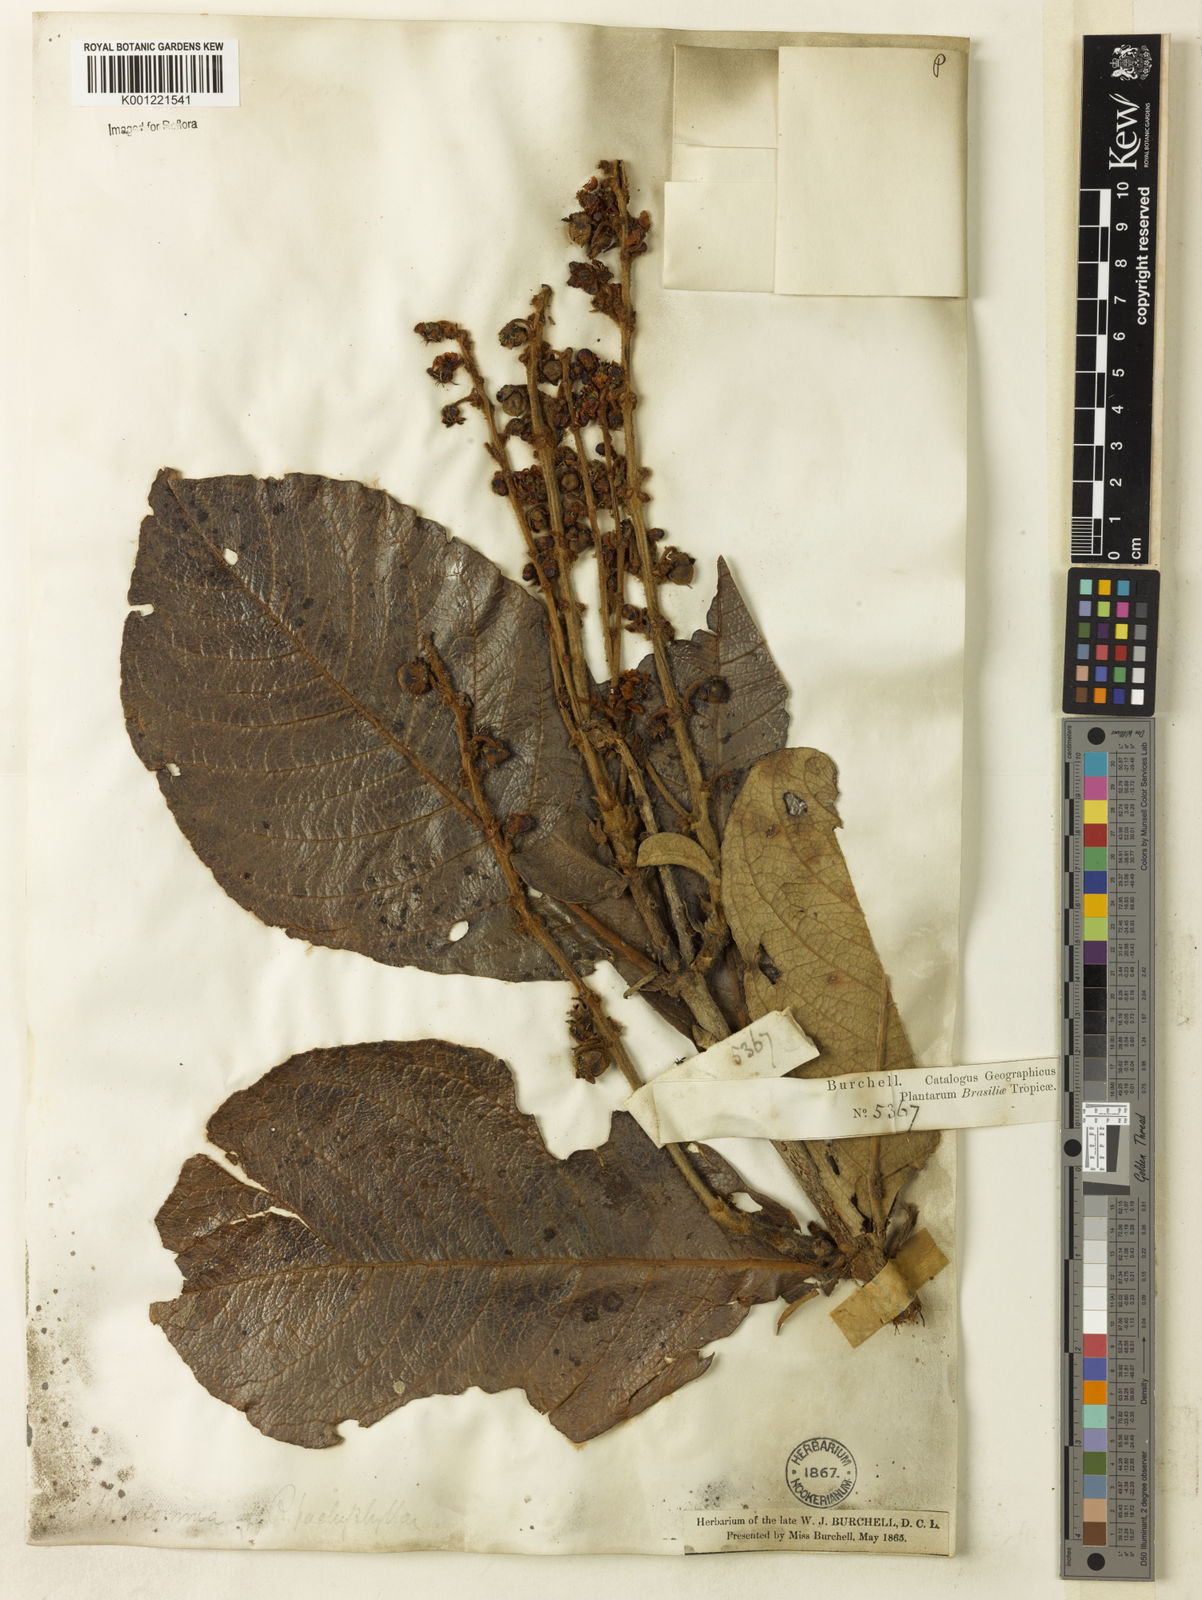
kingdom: Plantae
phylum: Tracheophyta
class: Magnoliopsida
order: Malpighiales
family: Malpighiaceae
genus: Byrsonima
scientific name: Byrsonima pachyphylla
